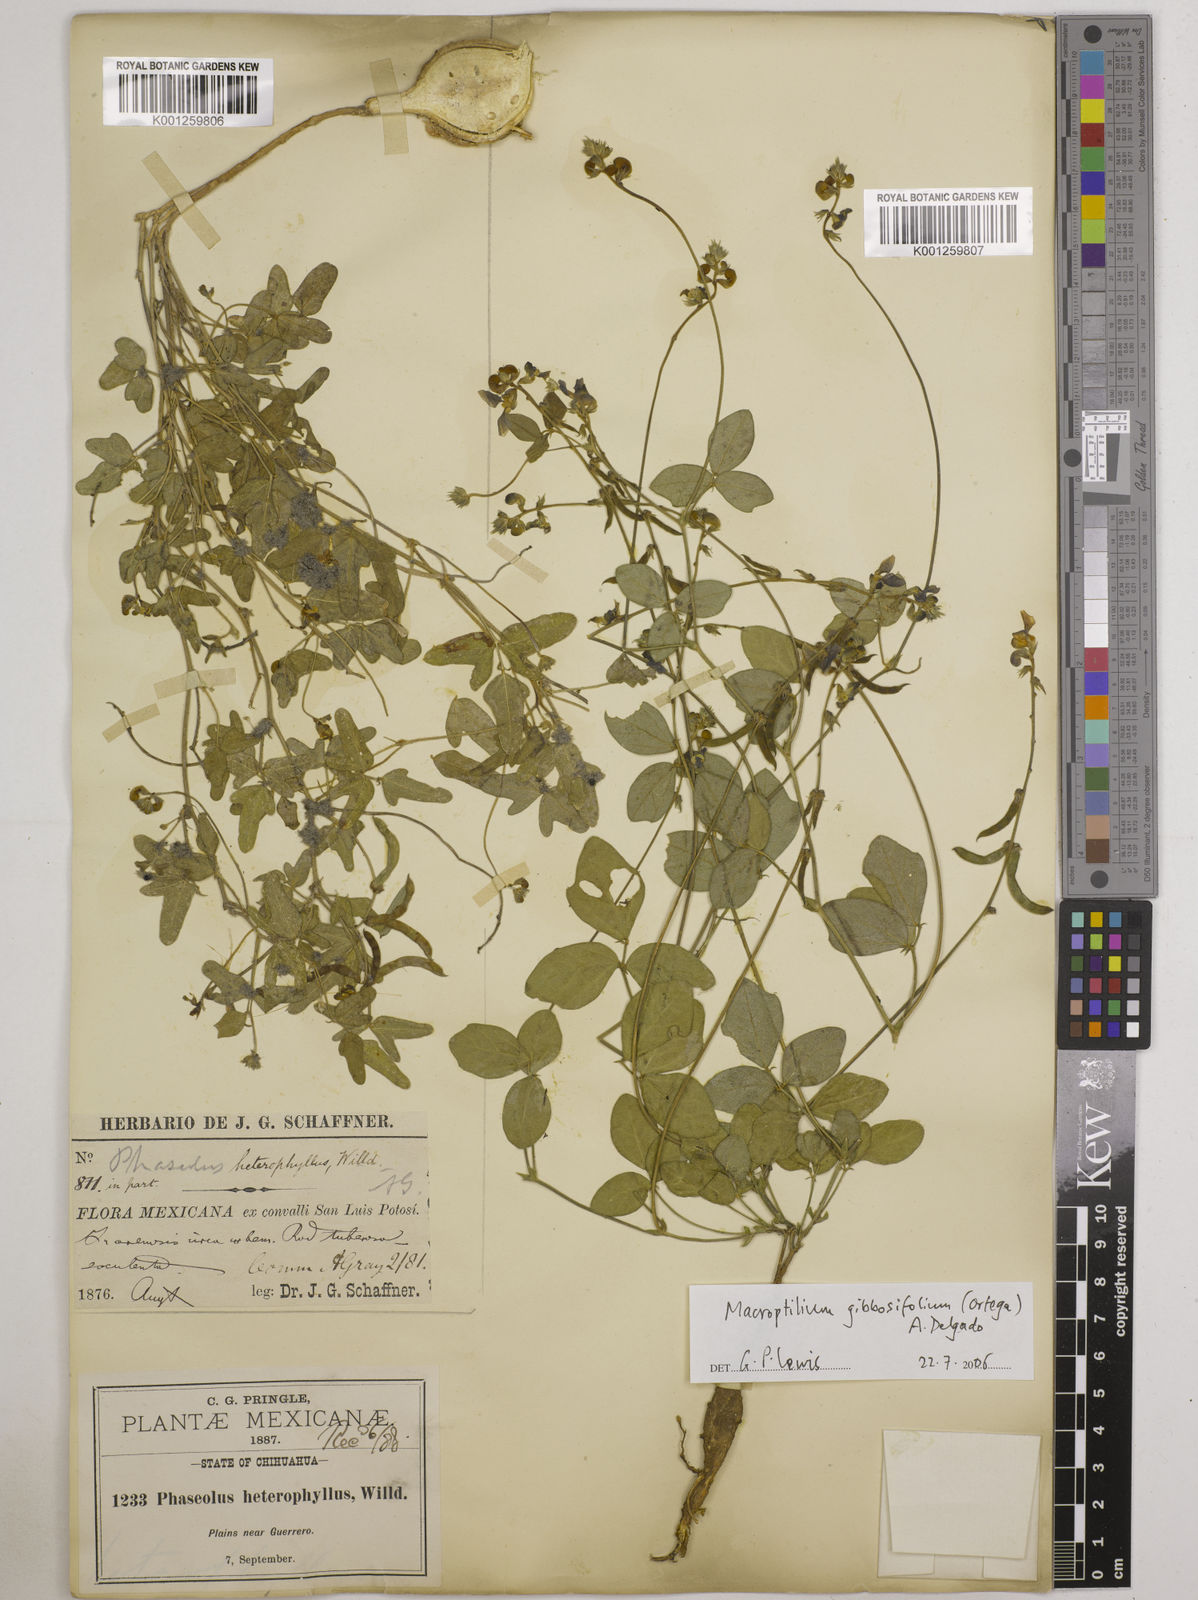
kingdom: Plantae
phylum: Tracheophyta
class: Magnoliopsida
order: Fabales
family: Fabaceae
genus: Macroptilium
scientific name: Macroptilium gibbosifolium
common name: Variableleaf bushbean
